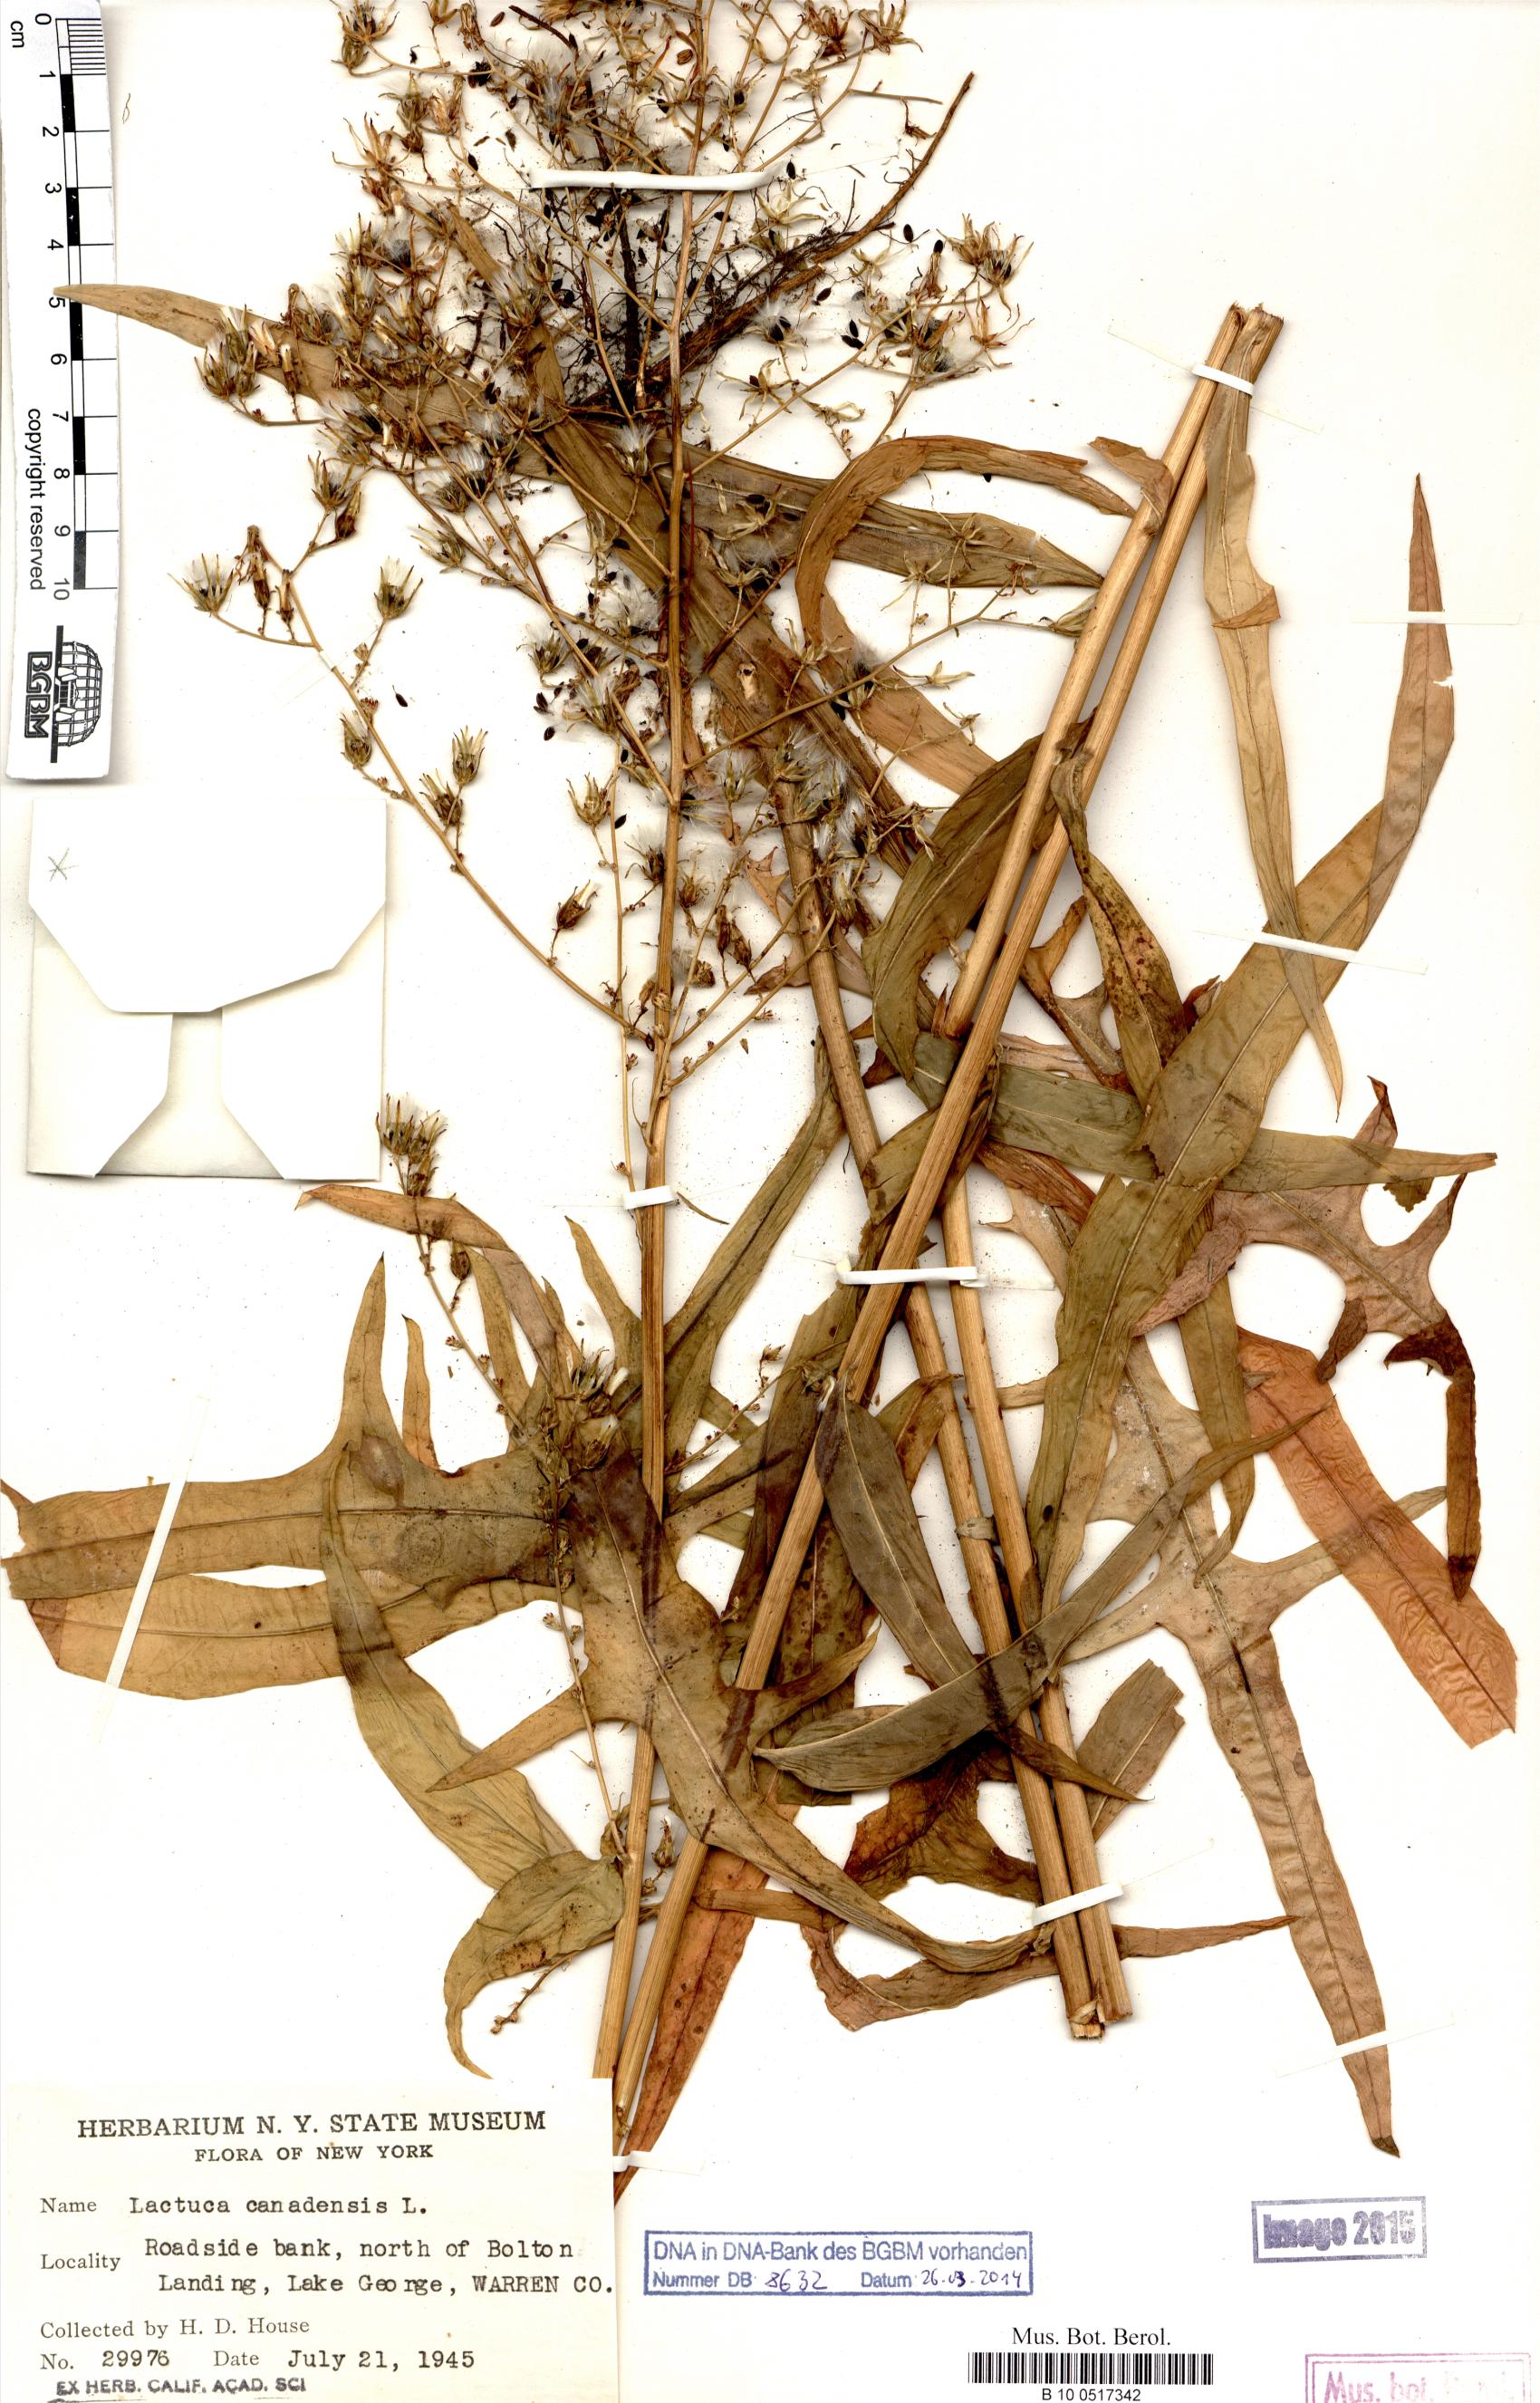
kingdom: Plantae
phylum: Tracheophyta
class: Magnoliopsida
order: Asterales
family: Asteraceae
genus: Lactuca
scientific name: Lactuca canadensis
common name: Canada lettuce
